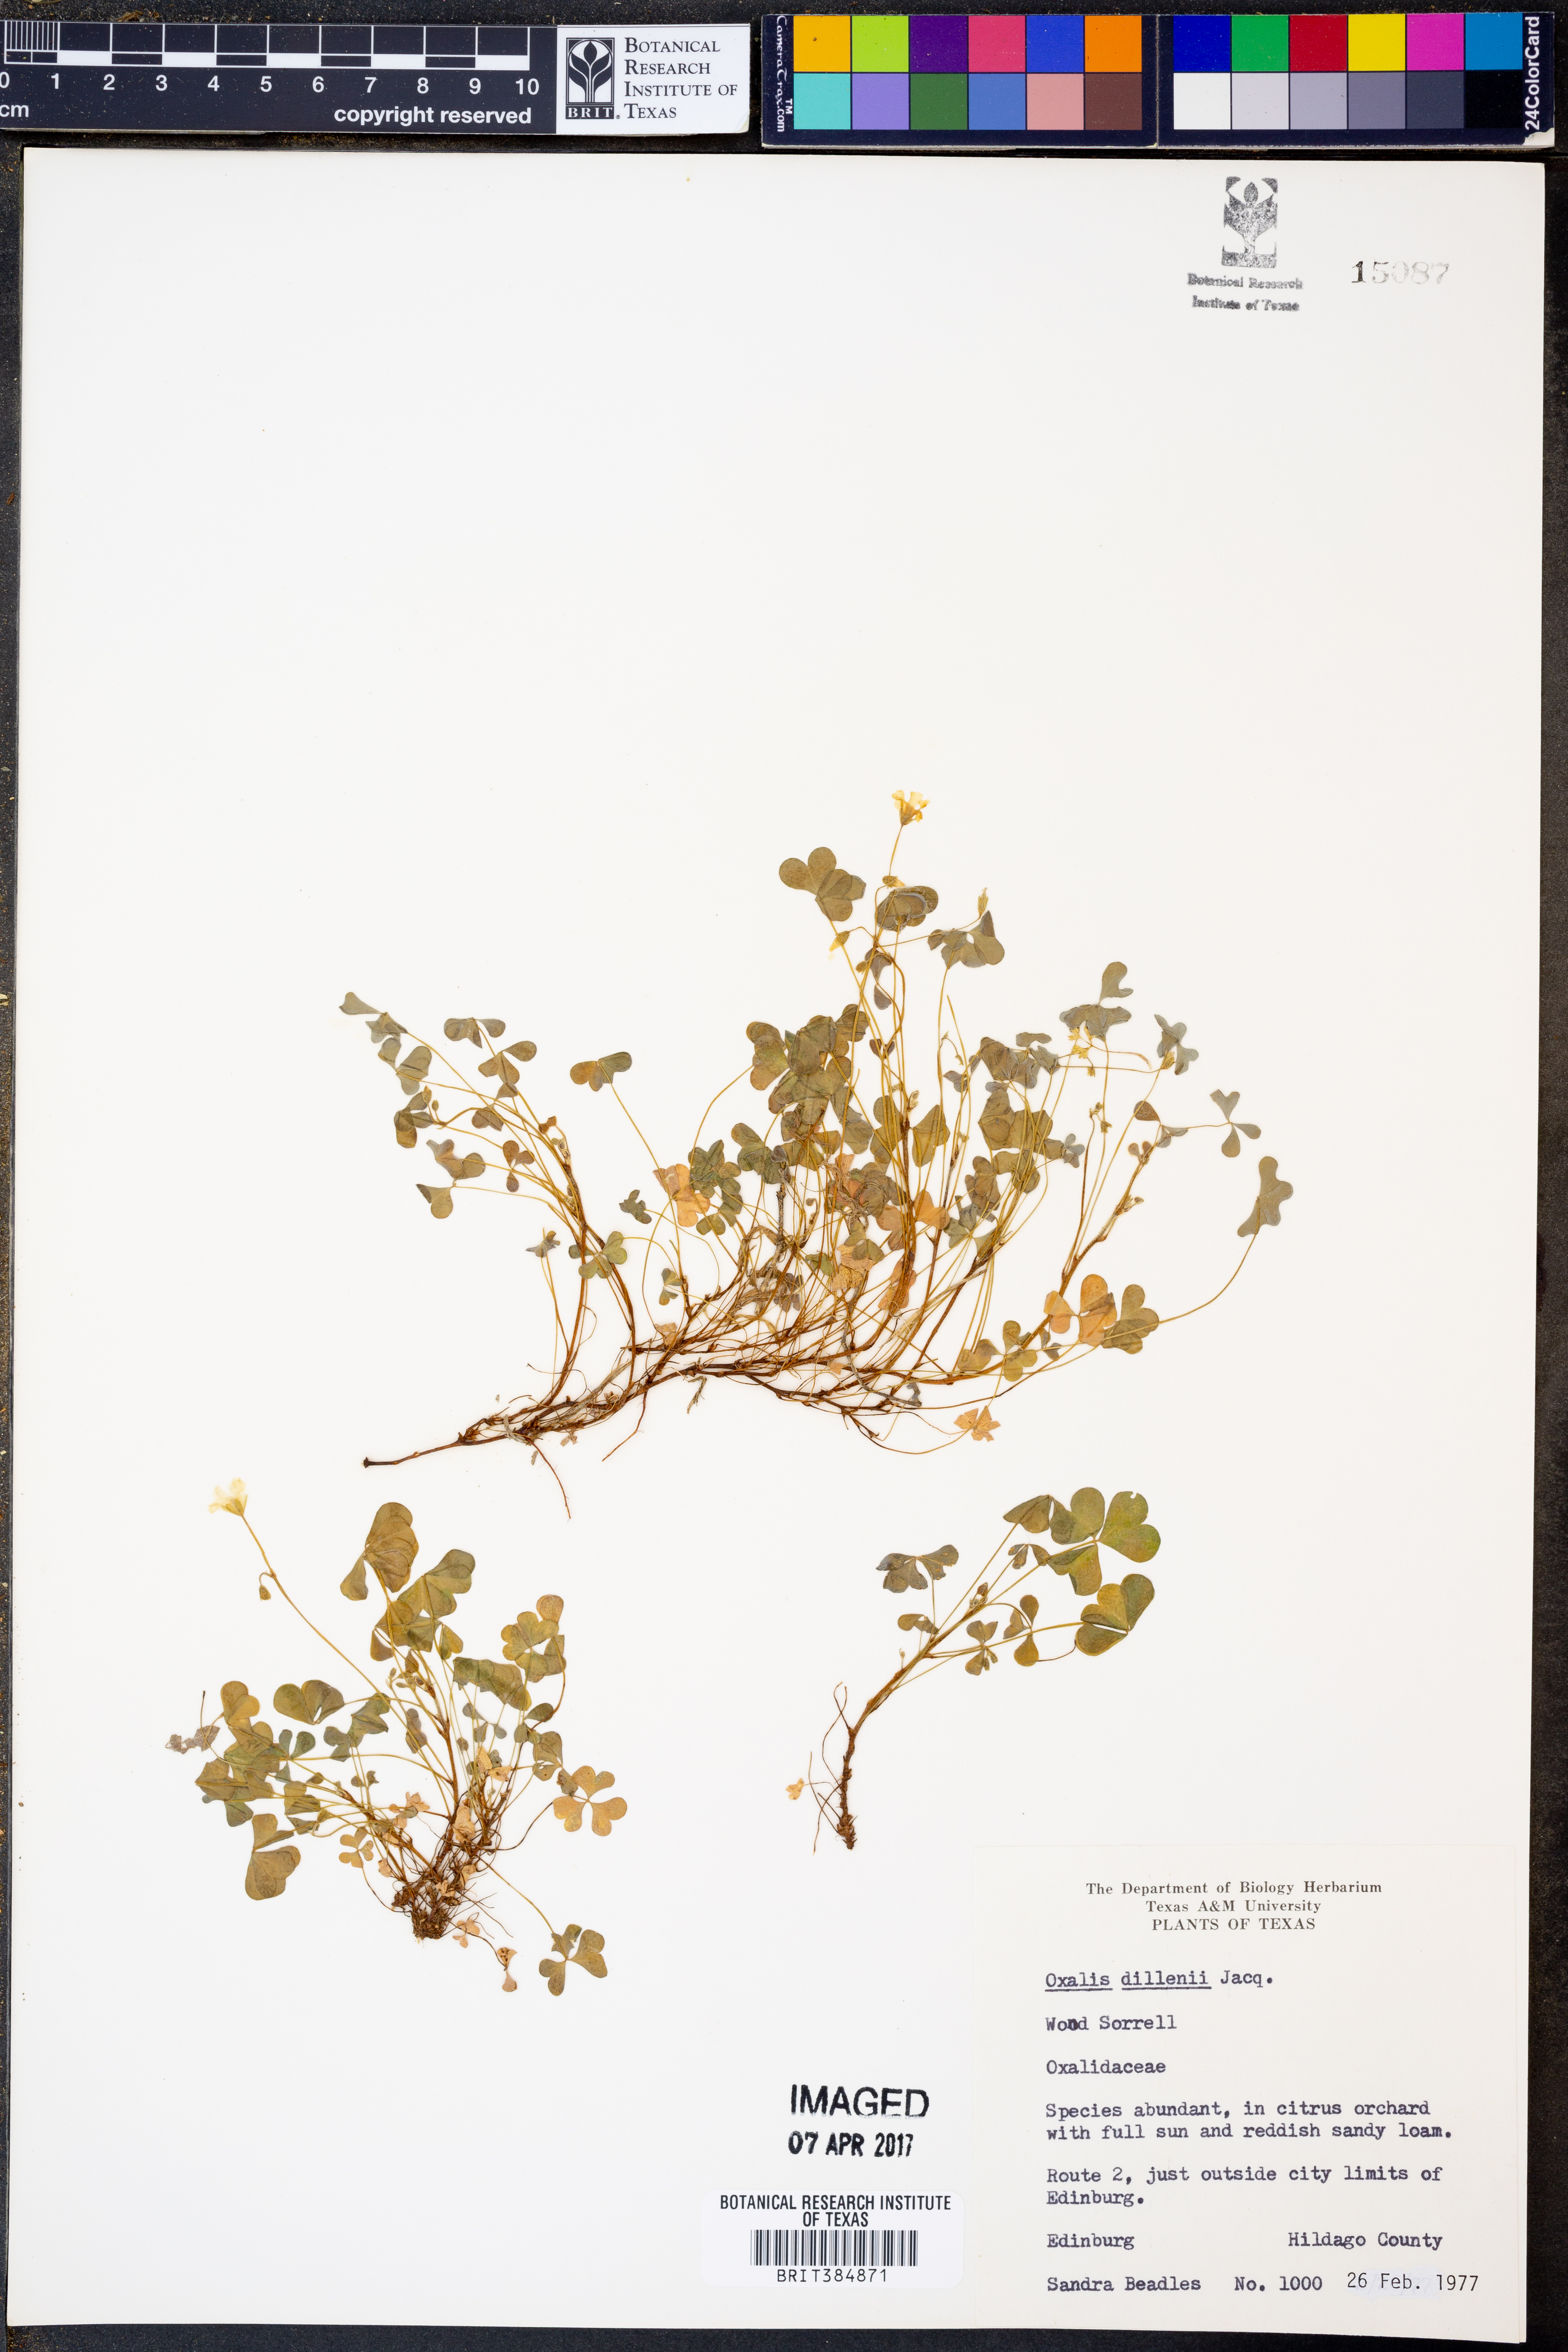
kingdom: Plantae
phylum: Tracheophyta
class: Magnoliopsida
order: Oxalidales
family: Oxalidaceae
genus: Oxalis
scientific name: Oxalis dillenii
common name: Sussex yellow-sorrel
